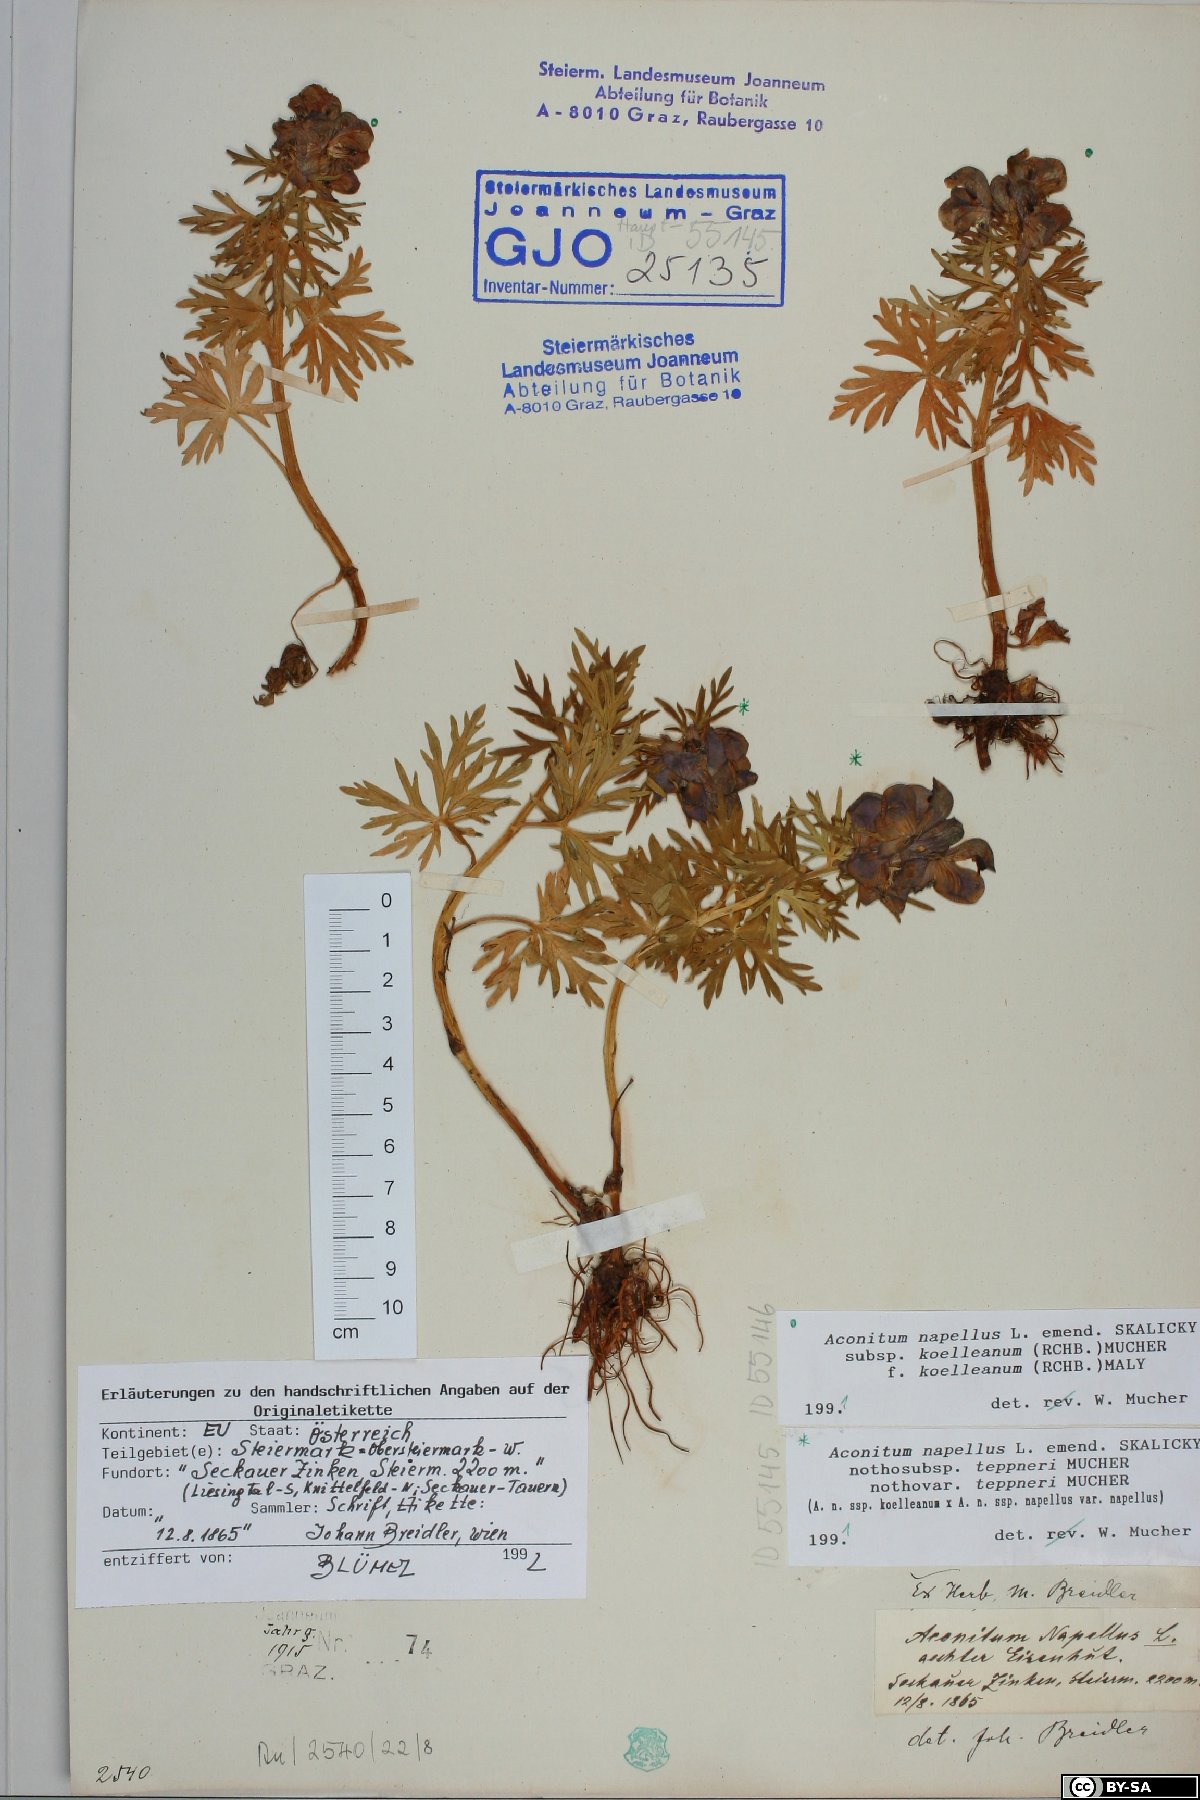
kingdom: Plantae
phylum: Tracheophyta
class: Magnoliopsida
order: Ranunculales
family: Ranunculaceae
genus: Aconitum
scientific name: Aconitum napellus
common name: Garden monkshood
